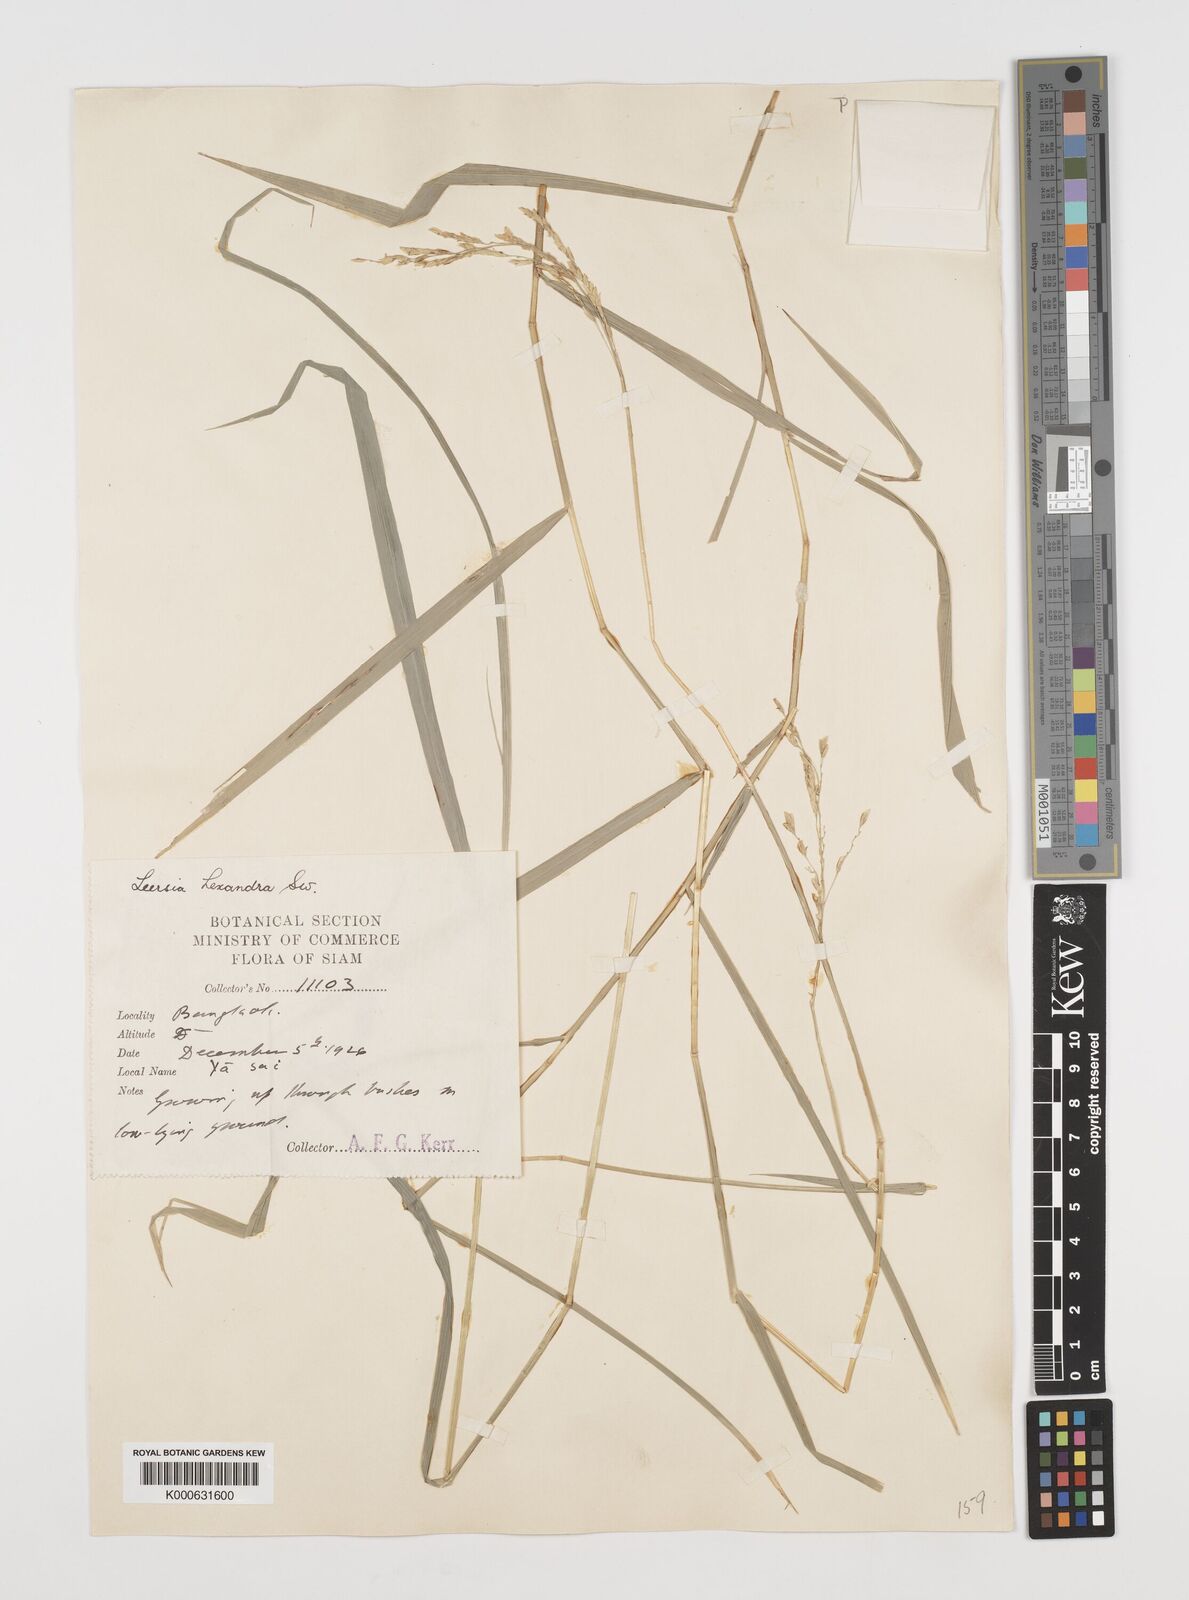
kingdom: Plantae
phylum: Tracheophyta
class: Liliopsida
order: Poales
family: Poaceae
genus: Leersia
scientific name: Leersia hexandra
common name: Southern cut grass
